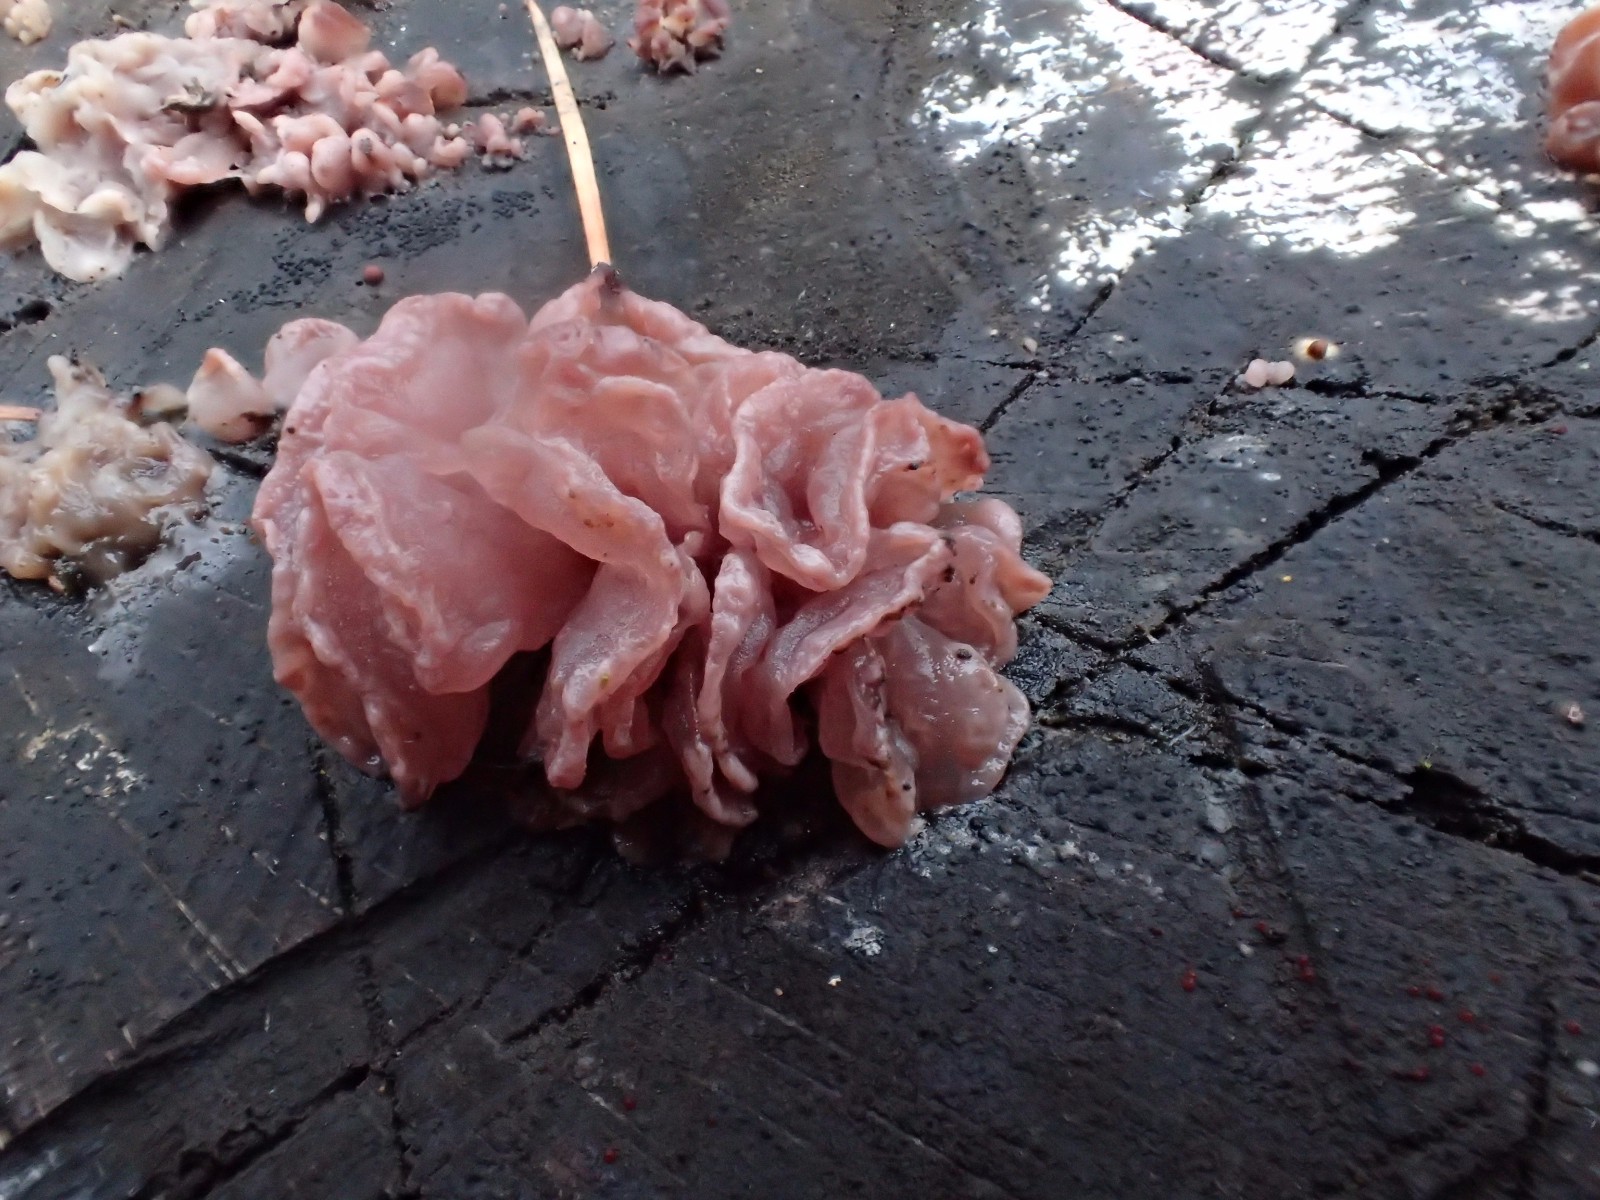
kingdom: Fungi
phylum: Ascomycota
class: Leotiomycetes
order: Helotiales
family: Gelatinodiscaceae
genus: Ascocoryne
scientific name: Ascocoryne sarcoides
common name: rødlilla sejskive
